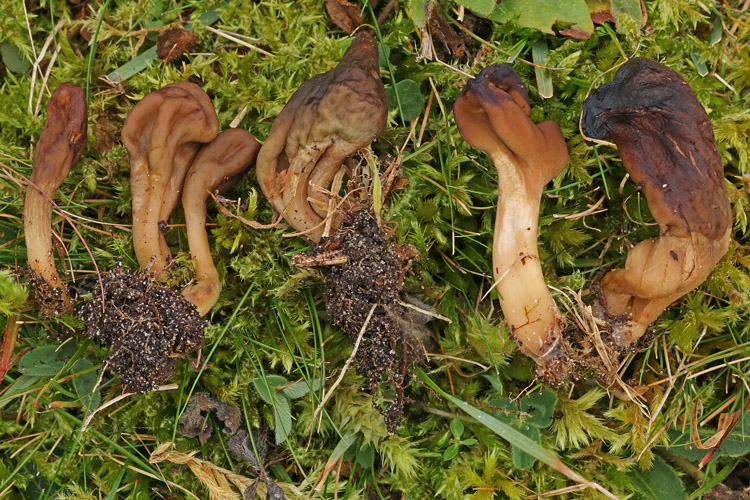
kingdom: Fungi
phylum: Ascomycota
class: Leotiomycetes
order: Leotiales
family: Leotiaceae
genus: Microglossum
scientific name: Microglossum olivaceum
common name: olivenbrun farvetunge
